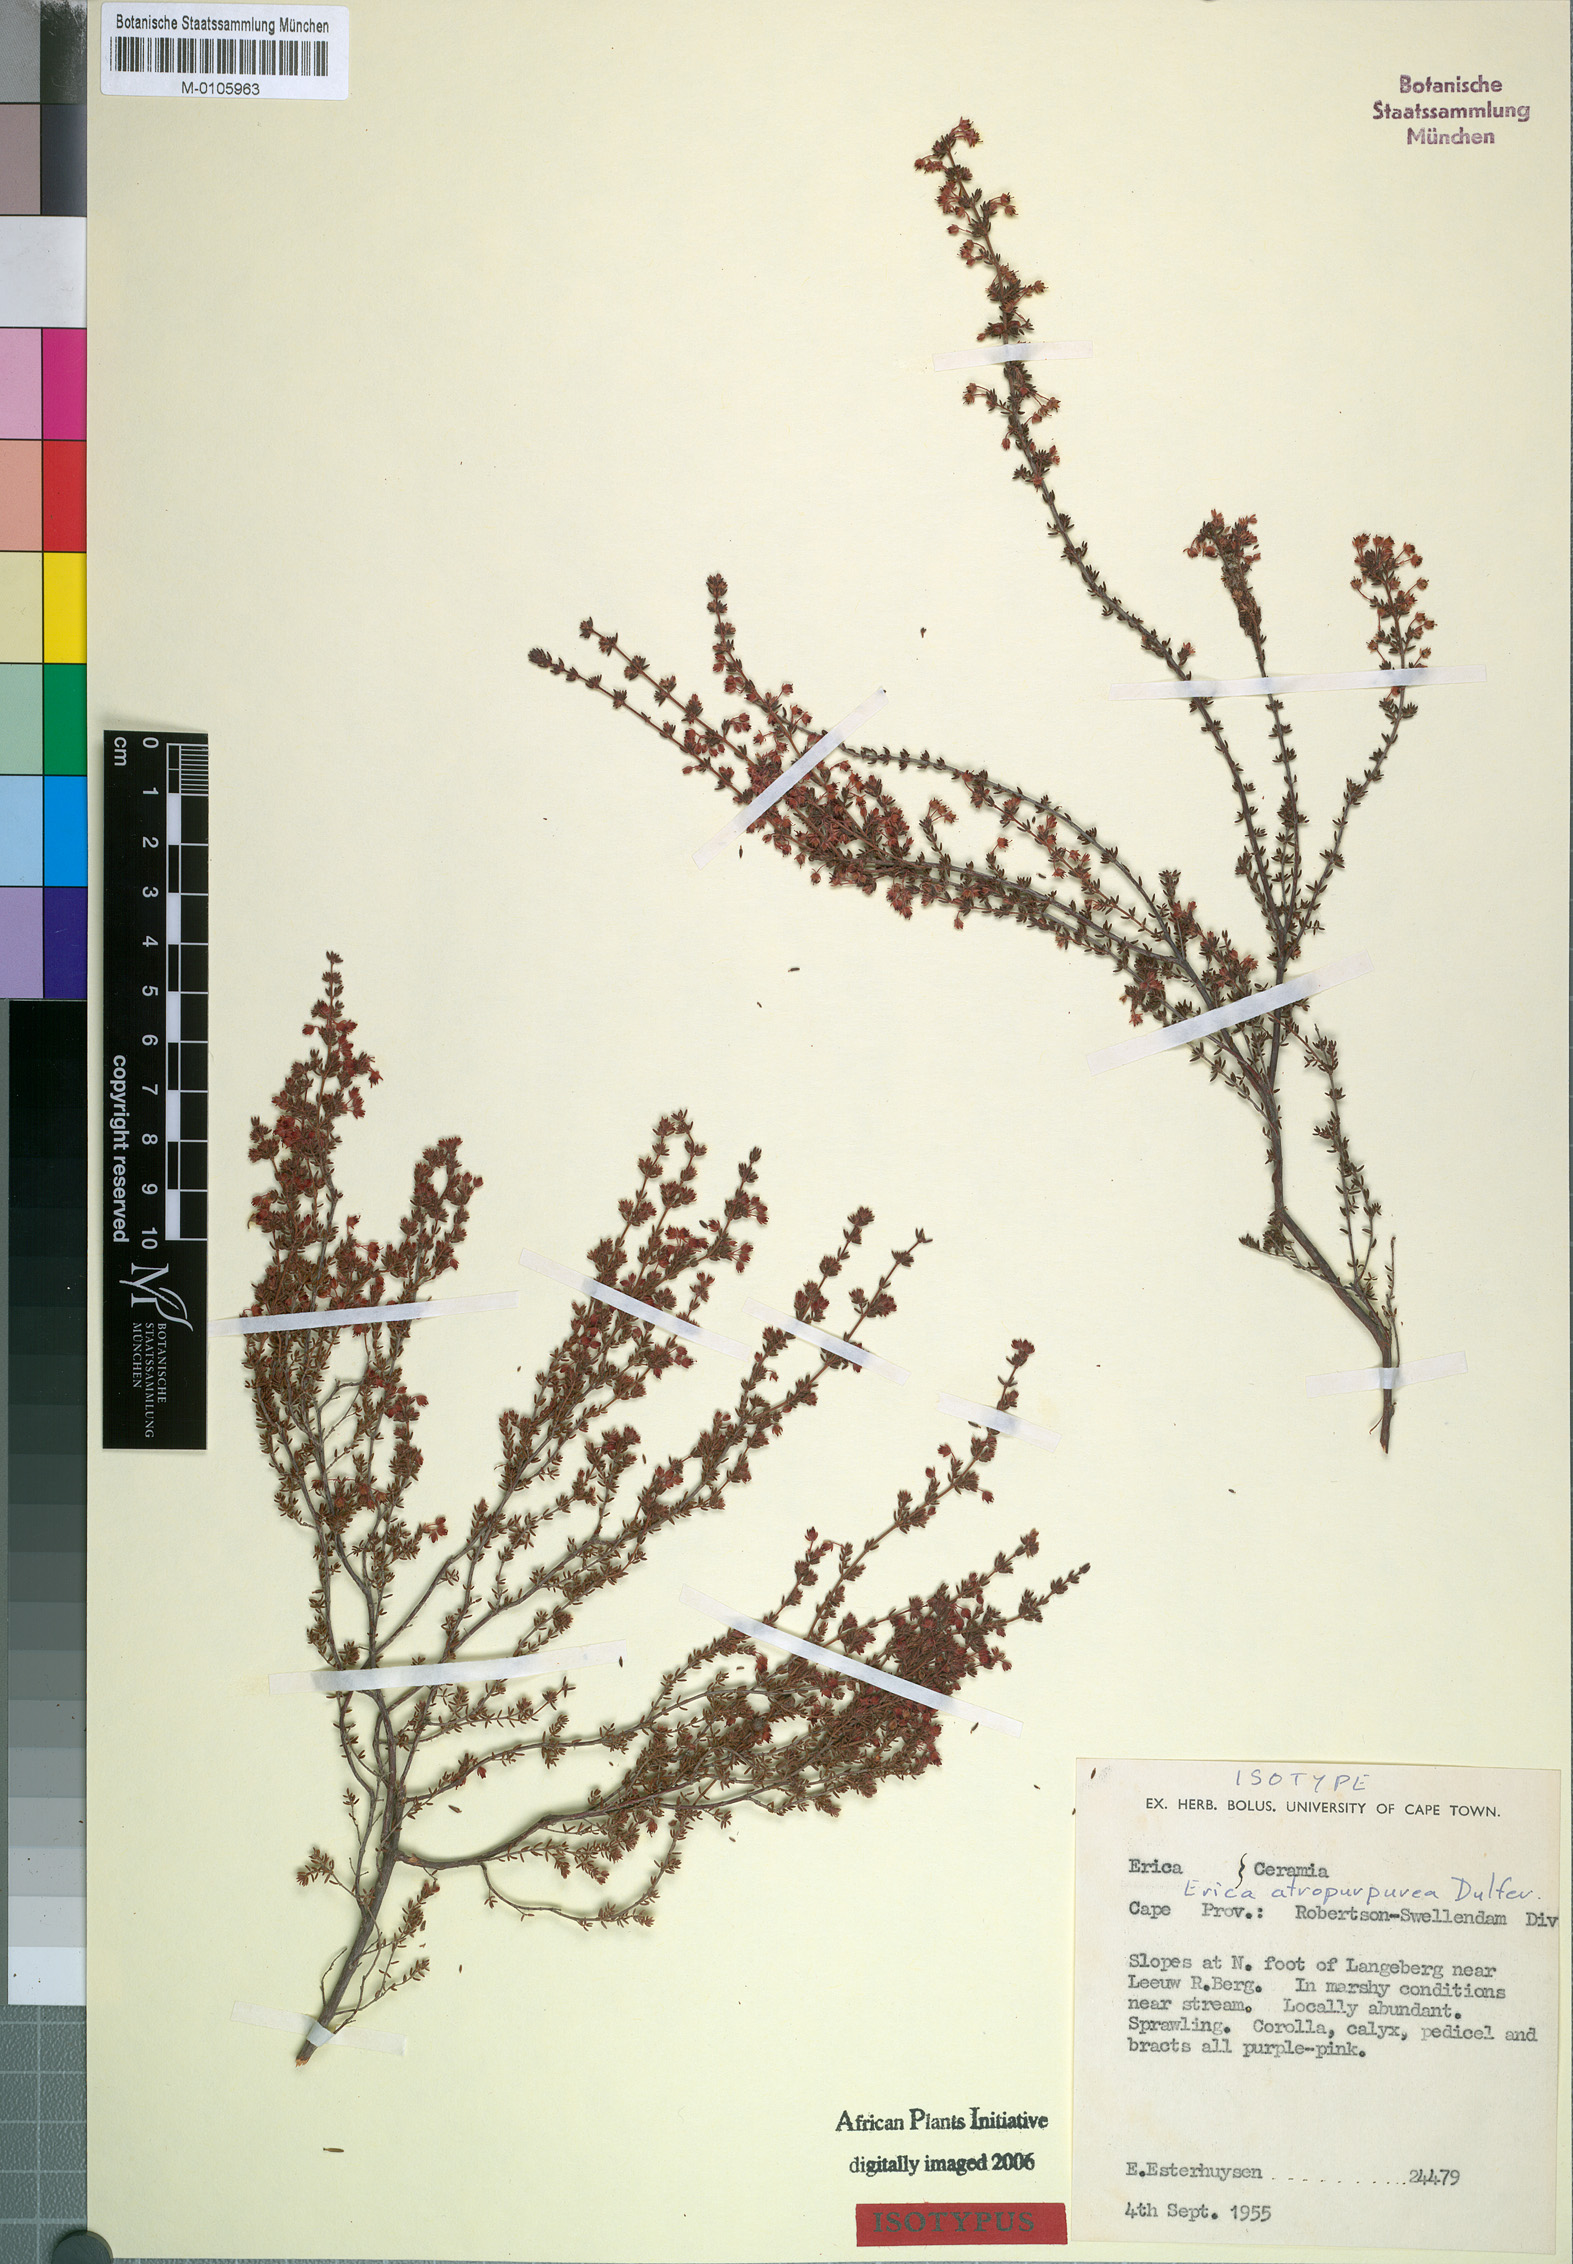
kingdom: Plantae
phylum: Tracheophyta
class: Magnoliopsida
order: Ericales
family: Ericaceae
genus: Erica
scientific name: Erica atropurpurea
